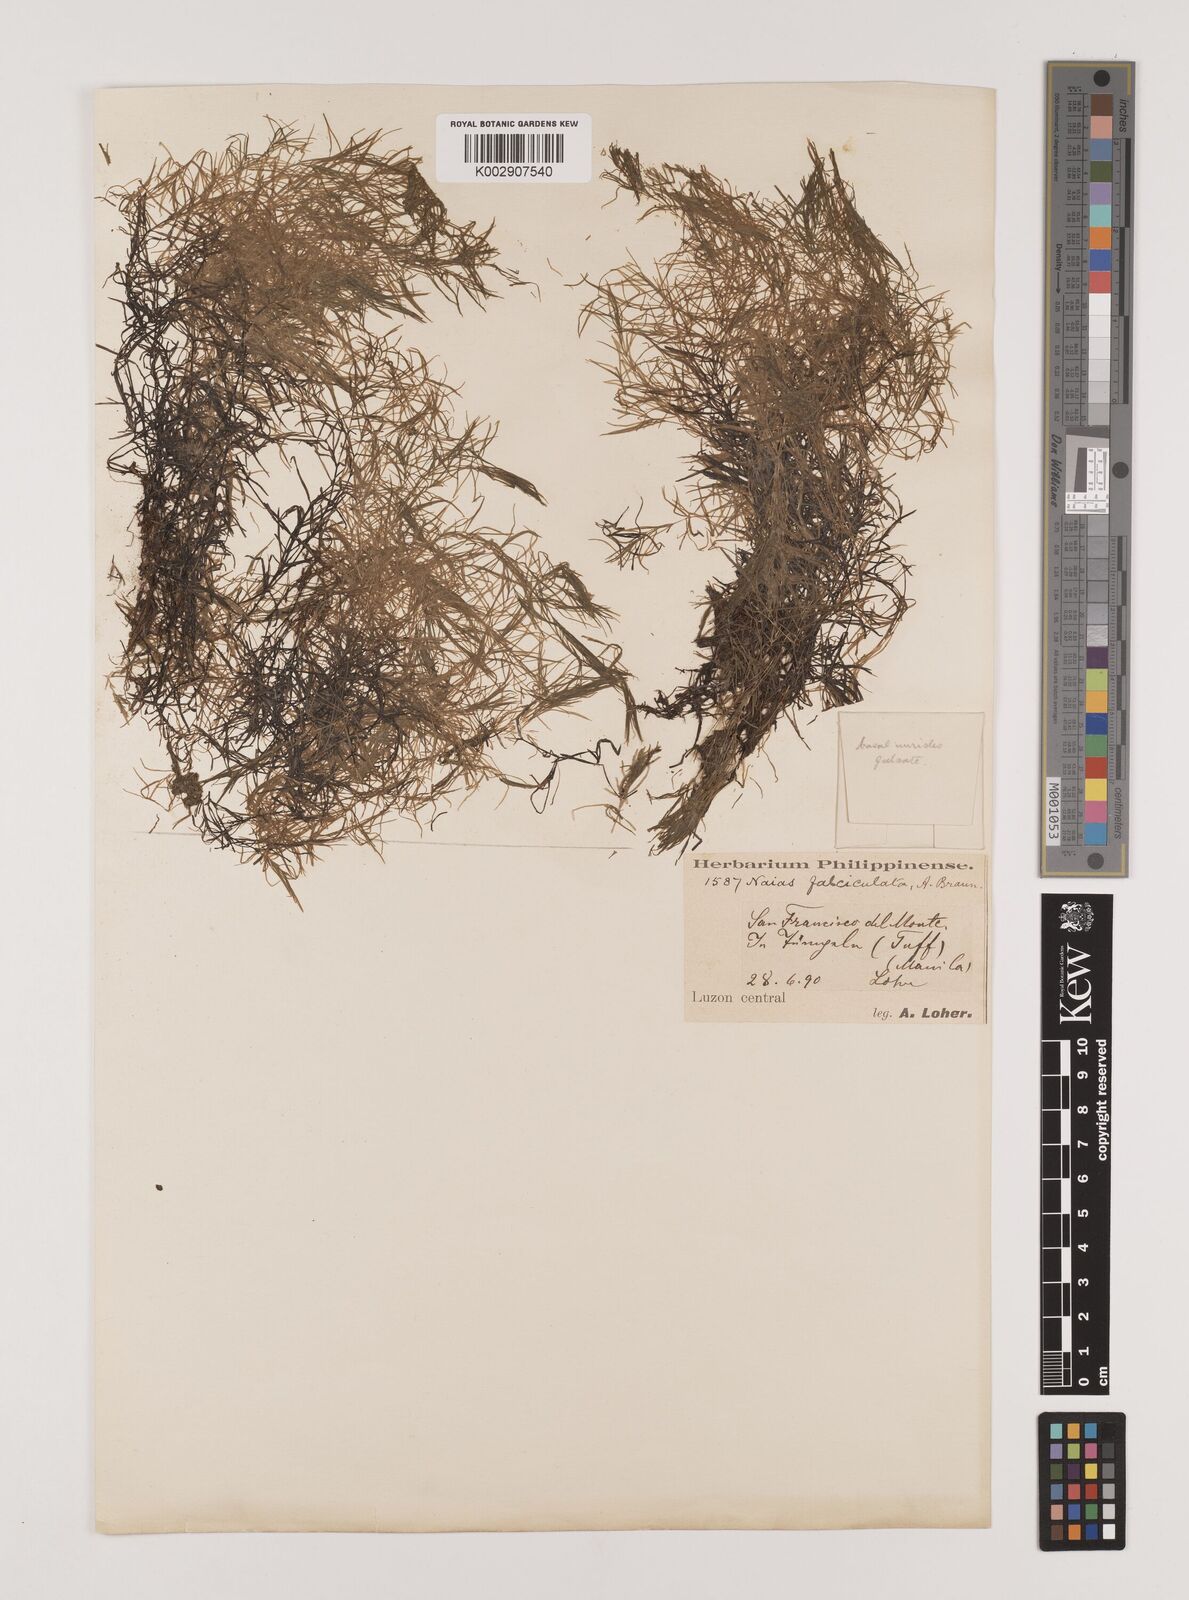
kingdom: Plantae
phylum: Tracheophyta
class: Liliopsida
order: Alismatales
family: Hydrocharitaceae
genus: Najas
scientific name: Najas indica
